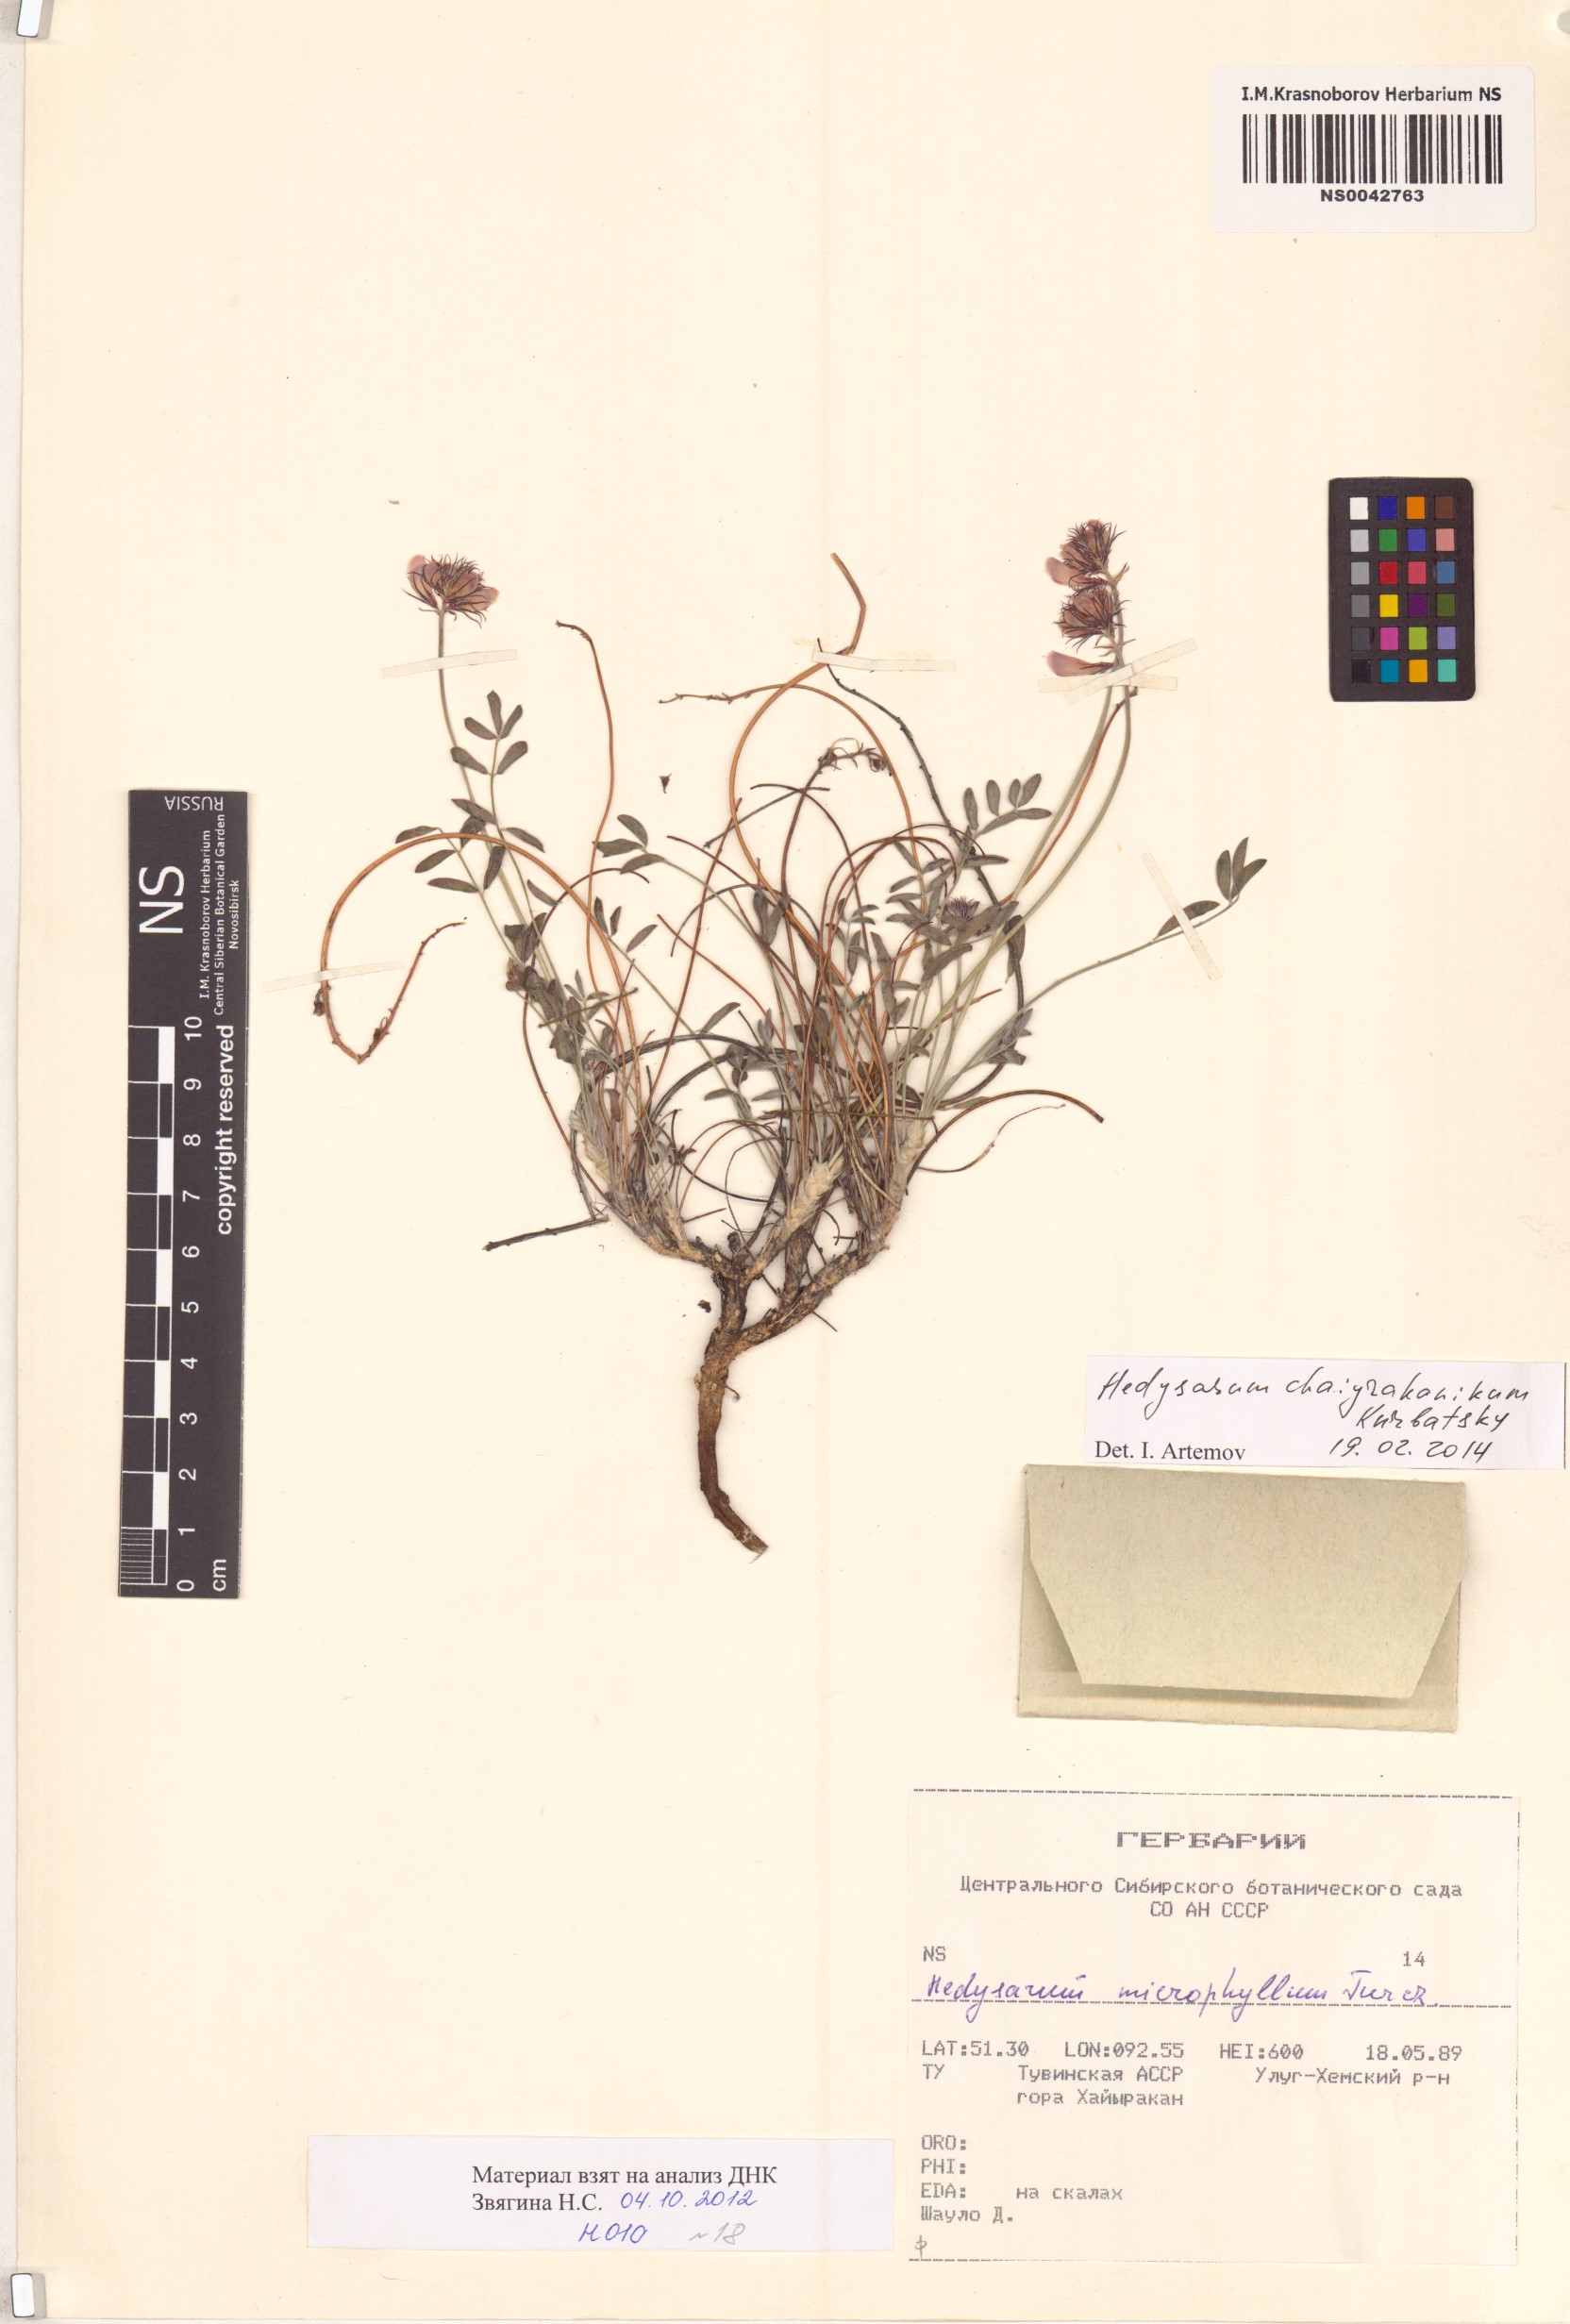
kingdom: Plantae
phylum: Tracheophyta
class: Magnoliopsida
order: Fabales
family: Fabaceae
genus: Hedysarum
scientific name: Hedysarum setigerum
